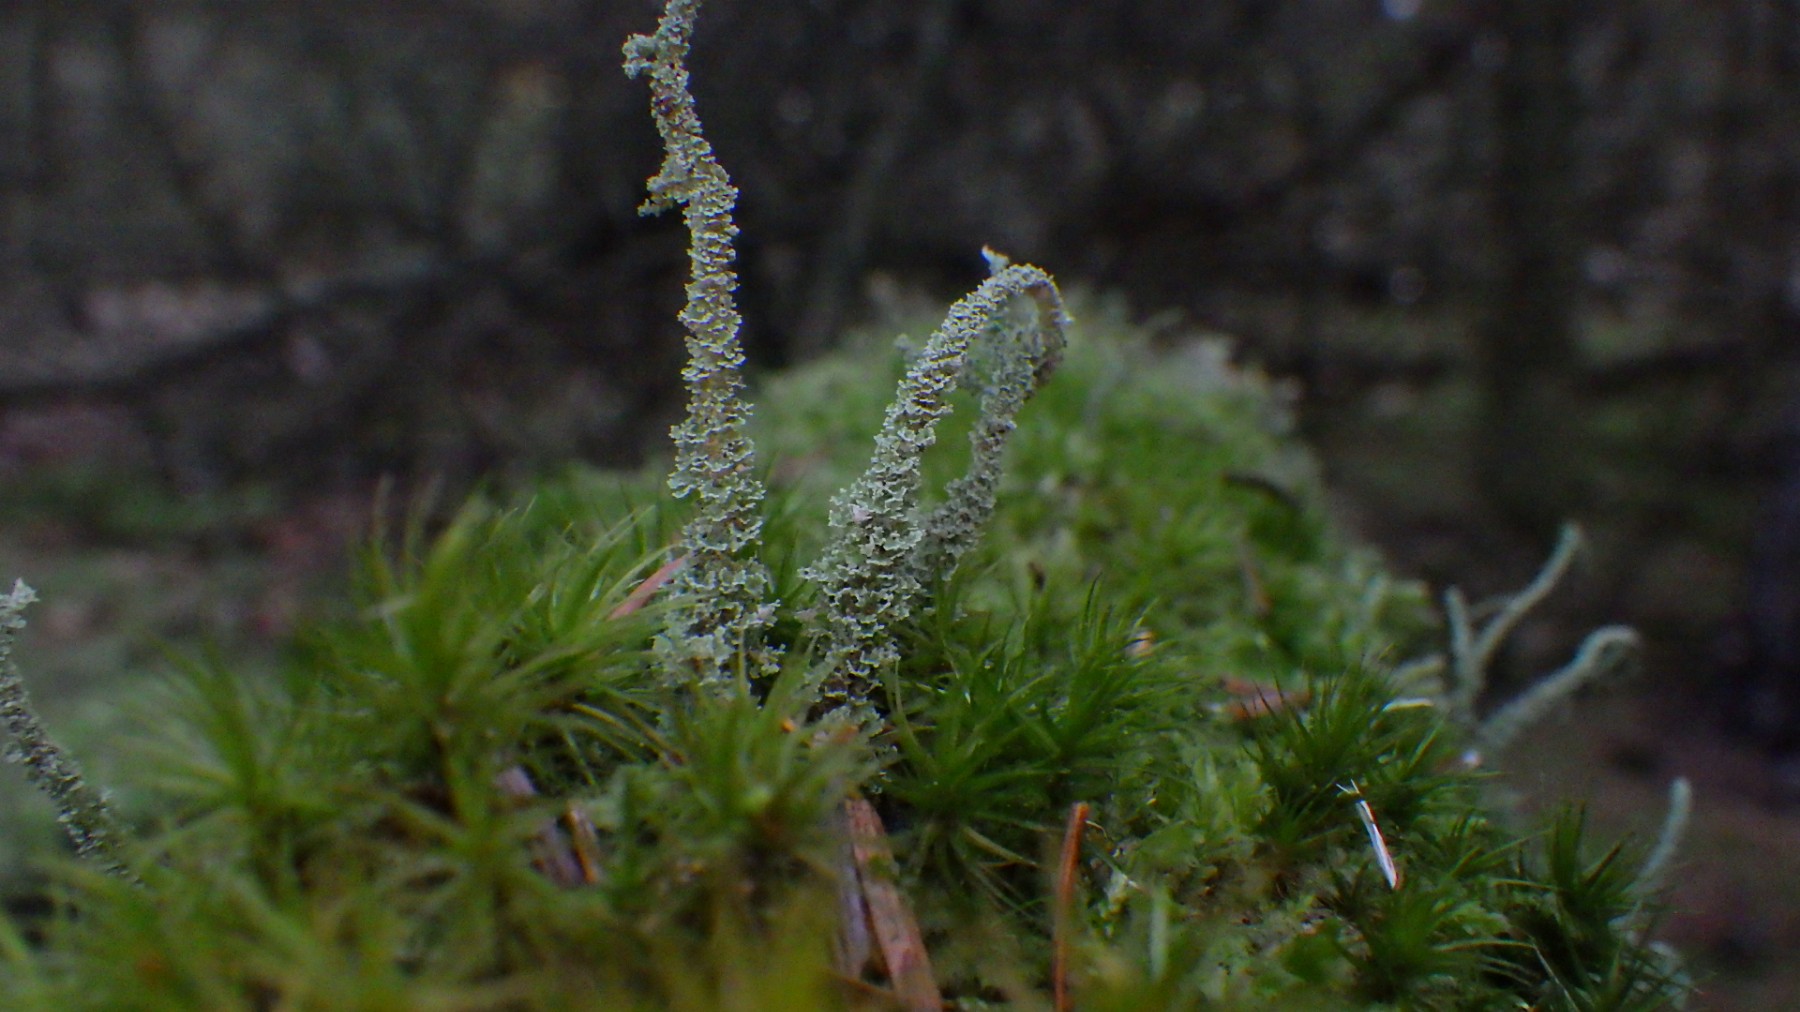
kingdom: Fungi
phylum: Ascomycota
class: Lecanoromycetes
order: Lecanorales
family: Cladoniaceae
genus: Cladonia
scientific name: Cladonia glauca
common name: grågrøn bægerlav
